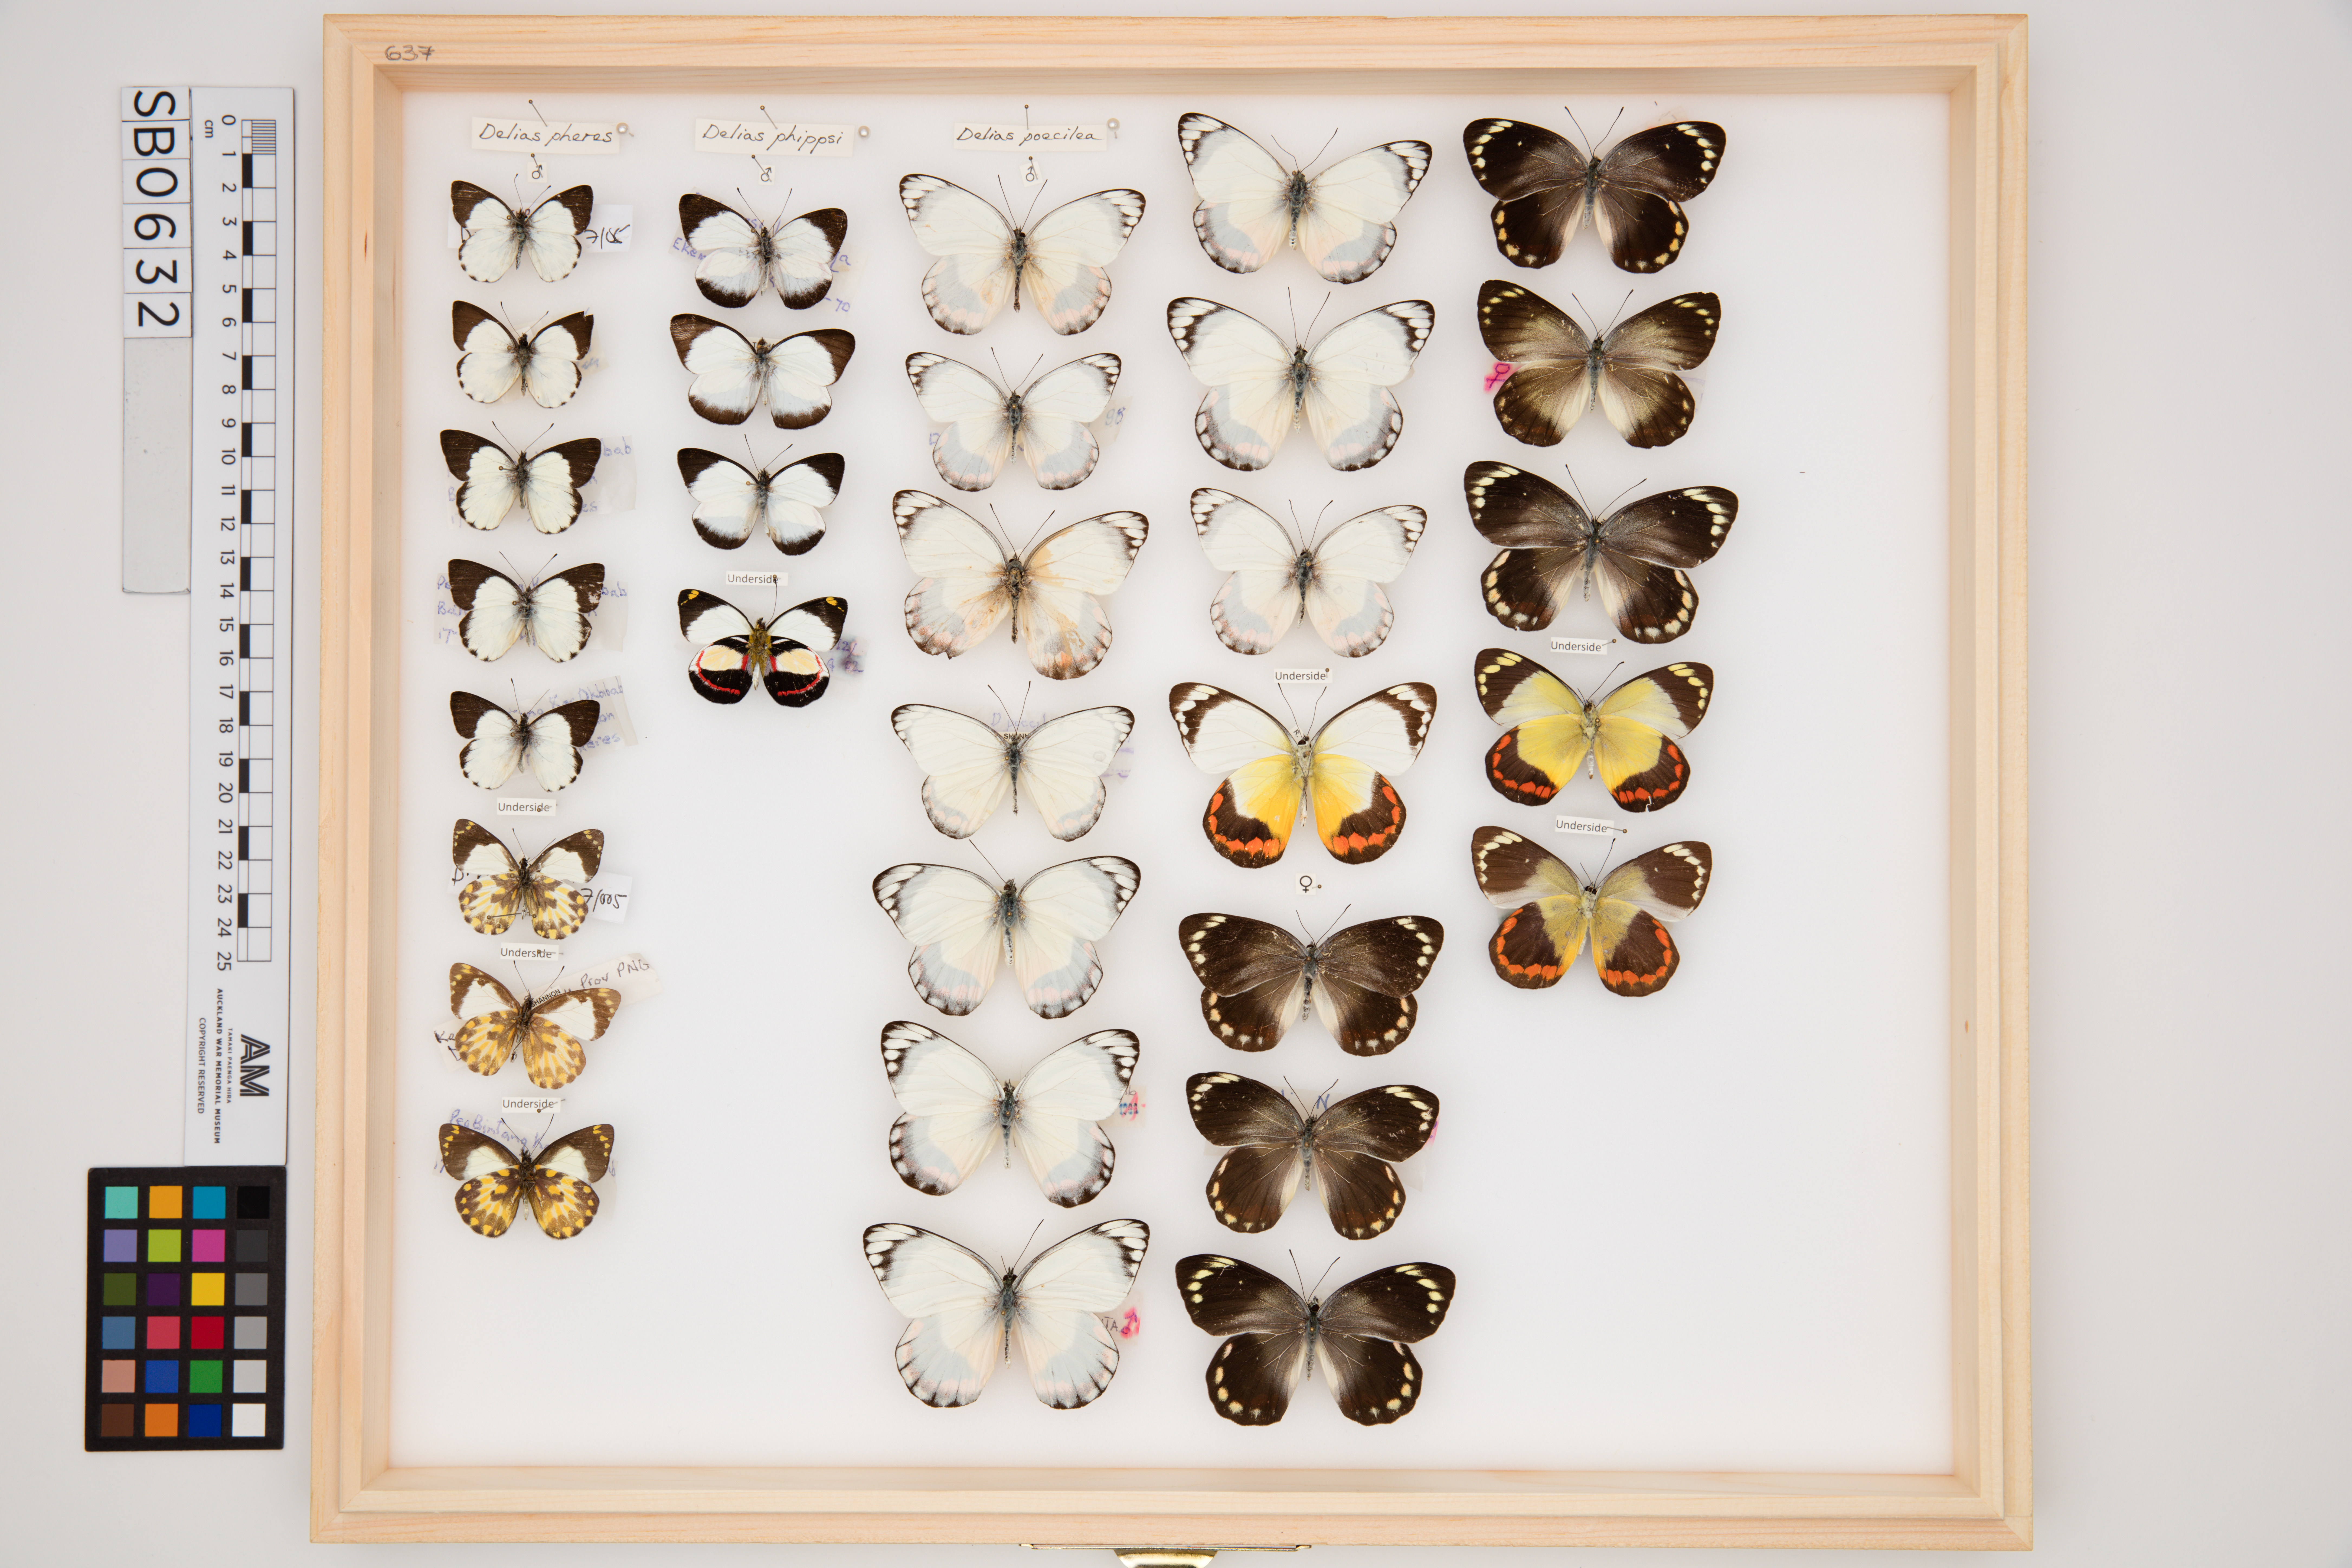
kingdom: Animalia
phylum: Arthropoda
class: Insecta
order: Lepidoptera
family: Pieridae
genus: Delias
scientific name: Delias phippsi
